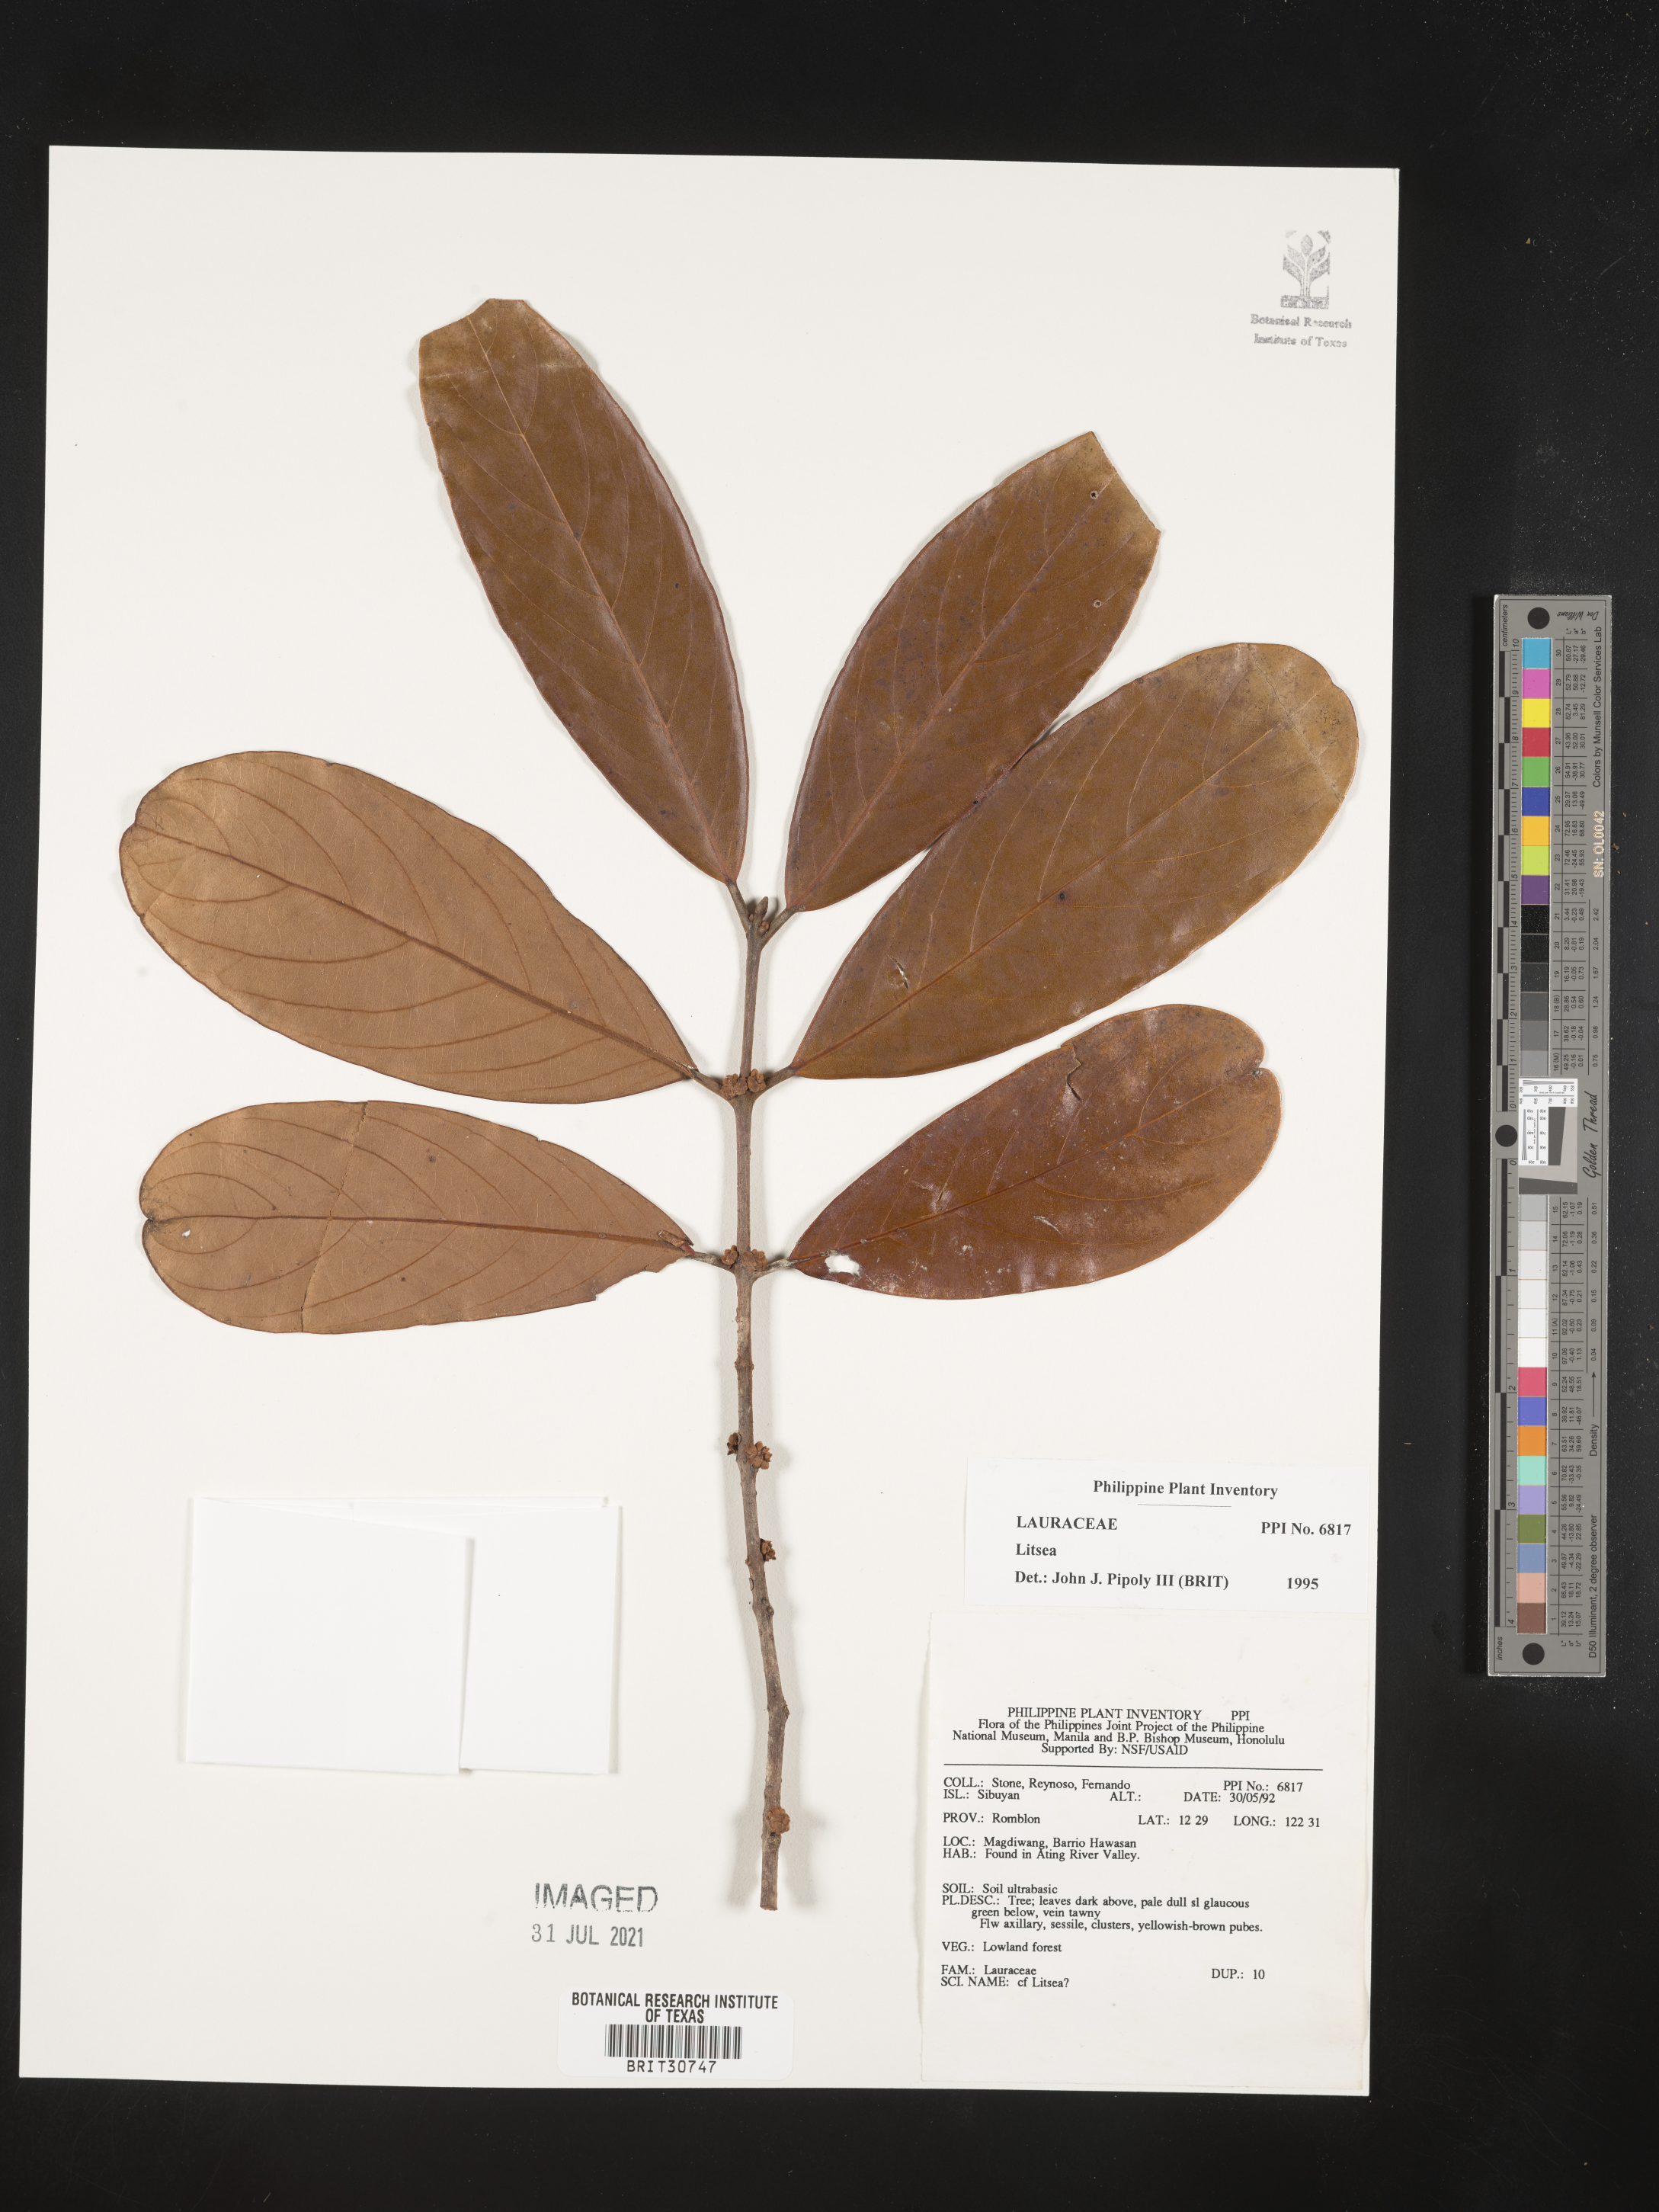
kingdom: Plantae
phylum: Tracheophyta
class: Magnoliopsida
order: Laurales
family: Lauraceae
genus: Litsea
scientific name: Litsea
